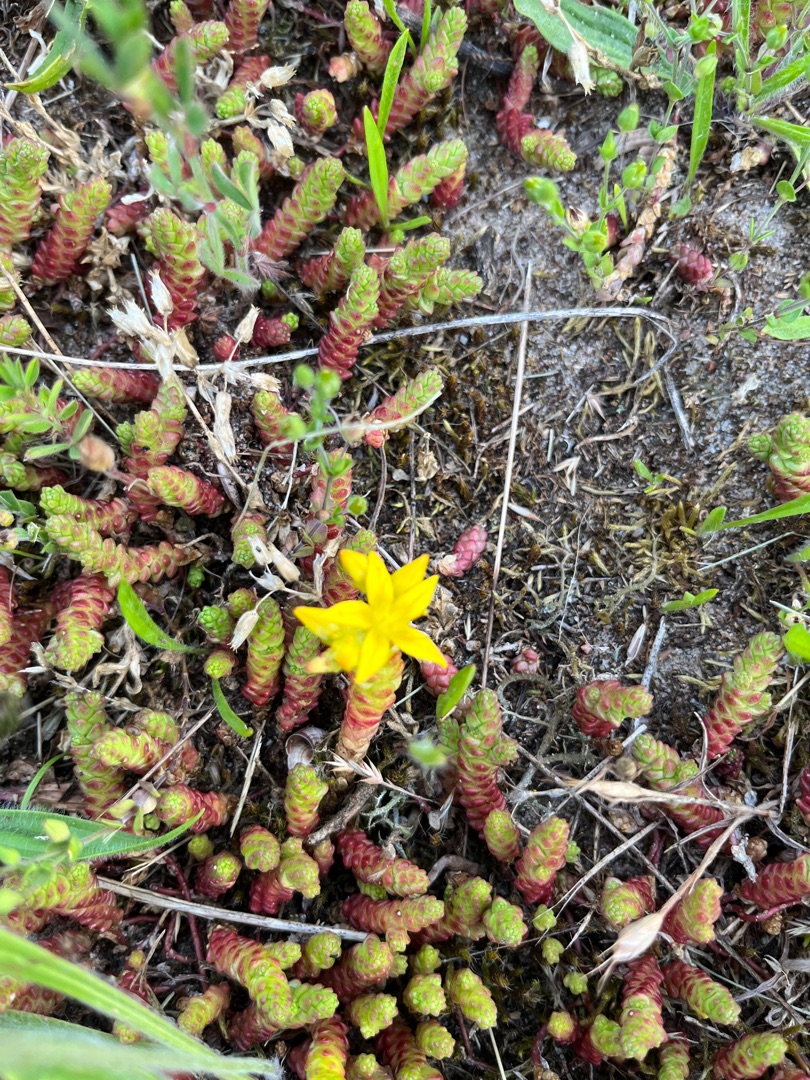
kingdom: Plantae
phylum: Tracheophyta
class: Magnoliopsida
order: Saxifragales
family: Crassulaceae
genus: Sedum
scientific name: Sedum acre
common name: Bidende stenurt
